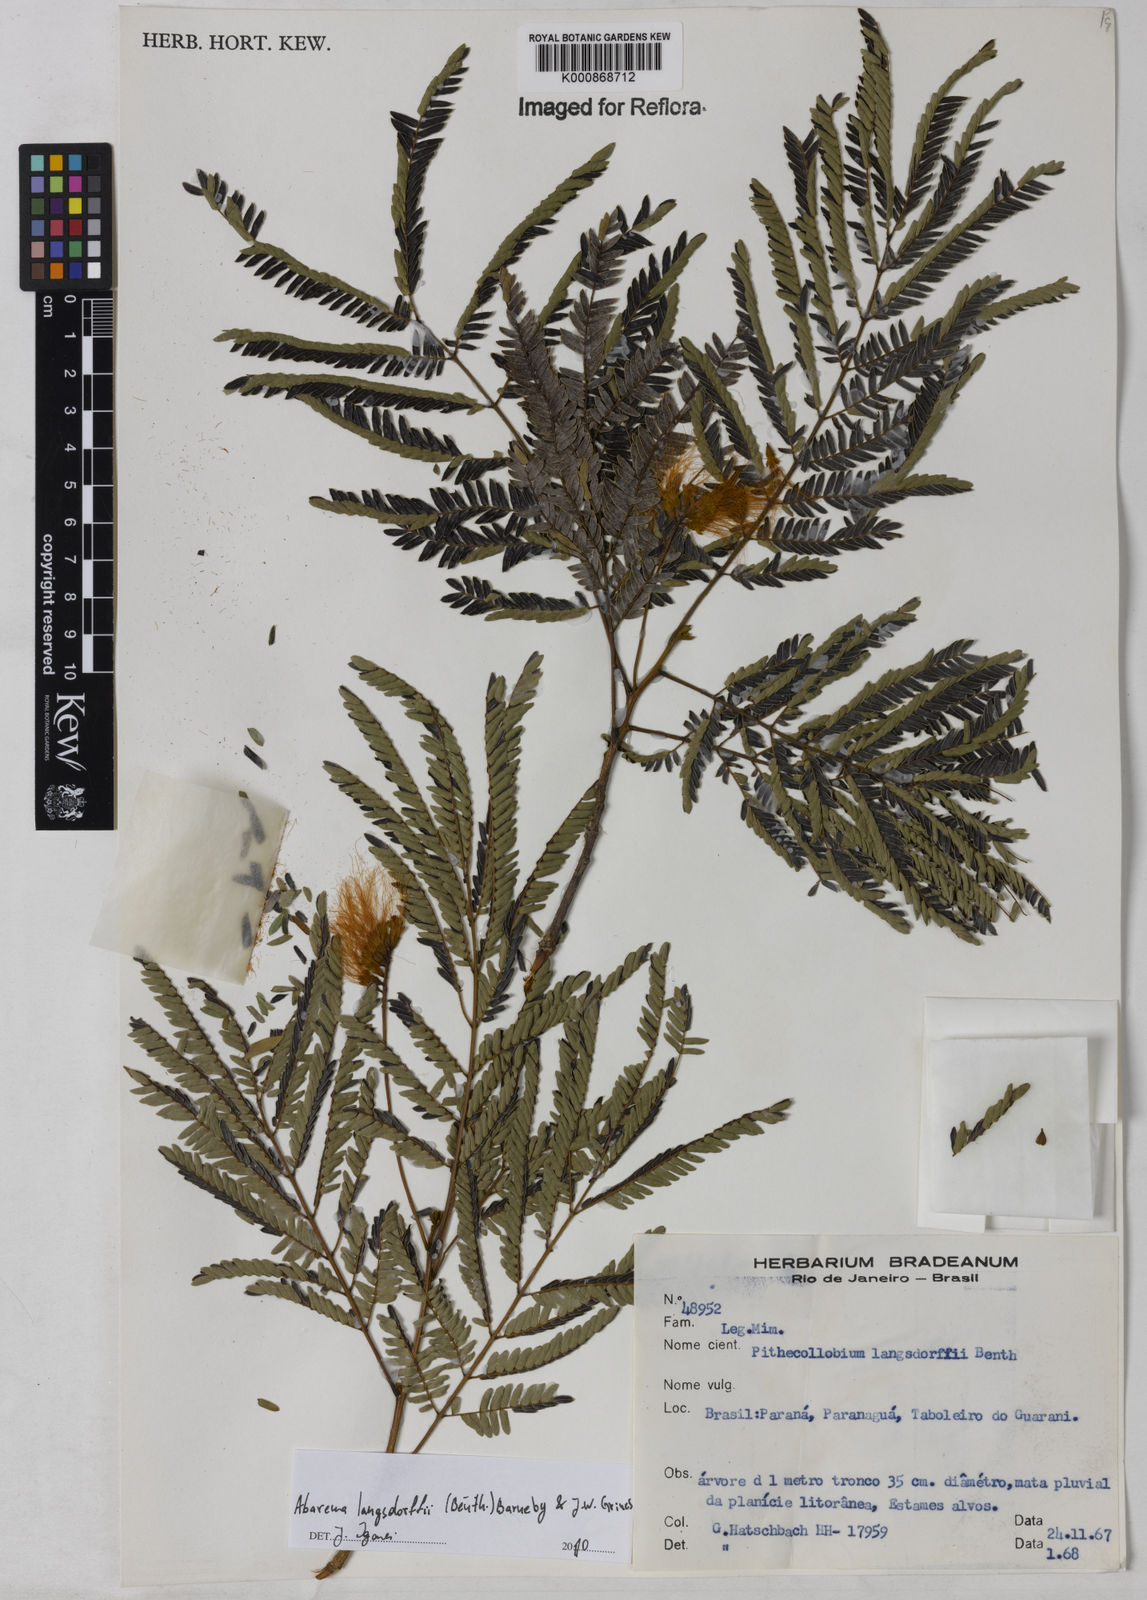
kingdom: Plantae
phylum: Tracheophyta
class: Magnoliopsida
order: Fabales
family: Fabaceae
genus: Jupunba
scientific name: Jupunba langsdorffii
